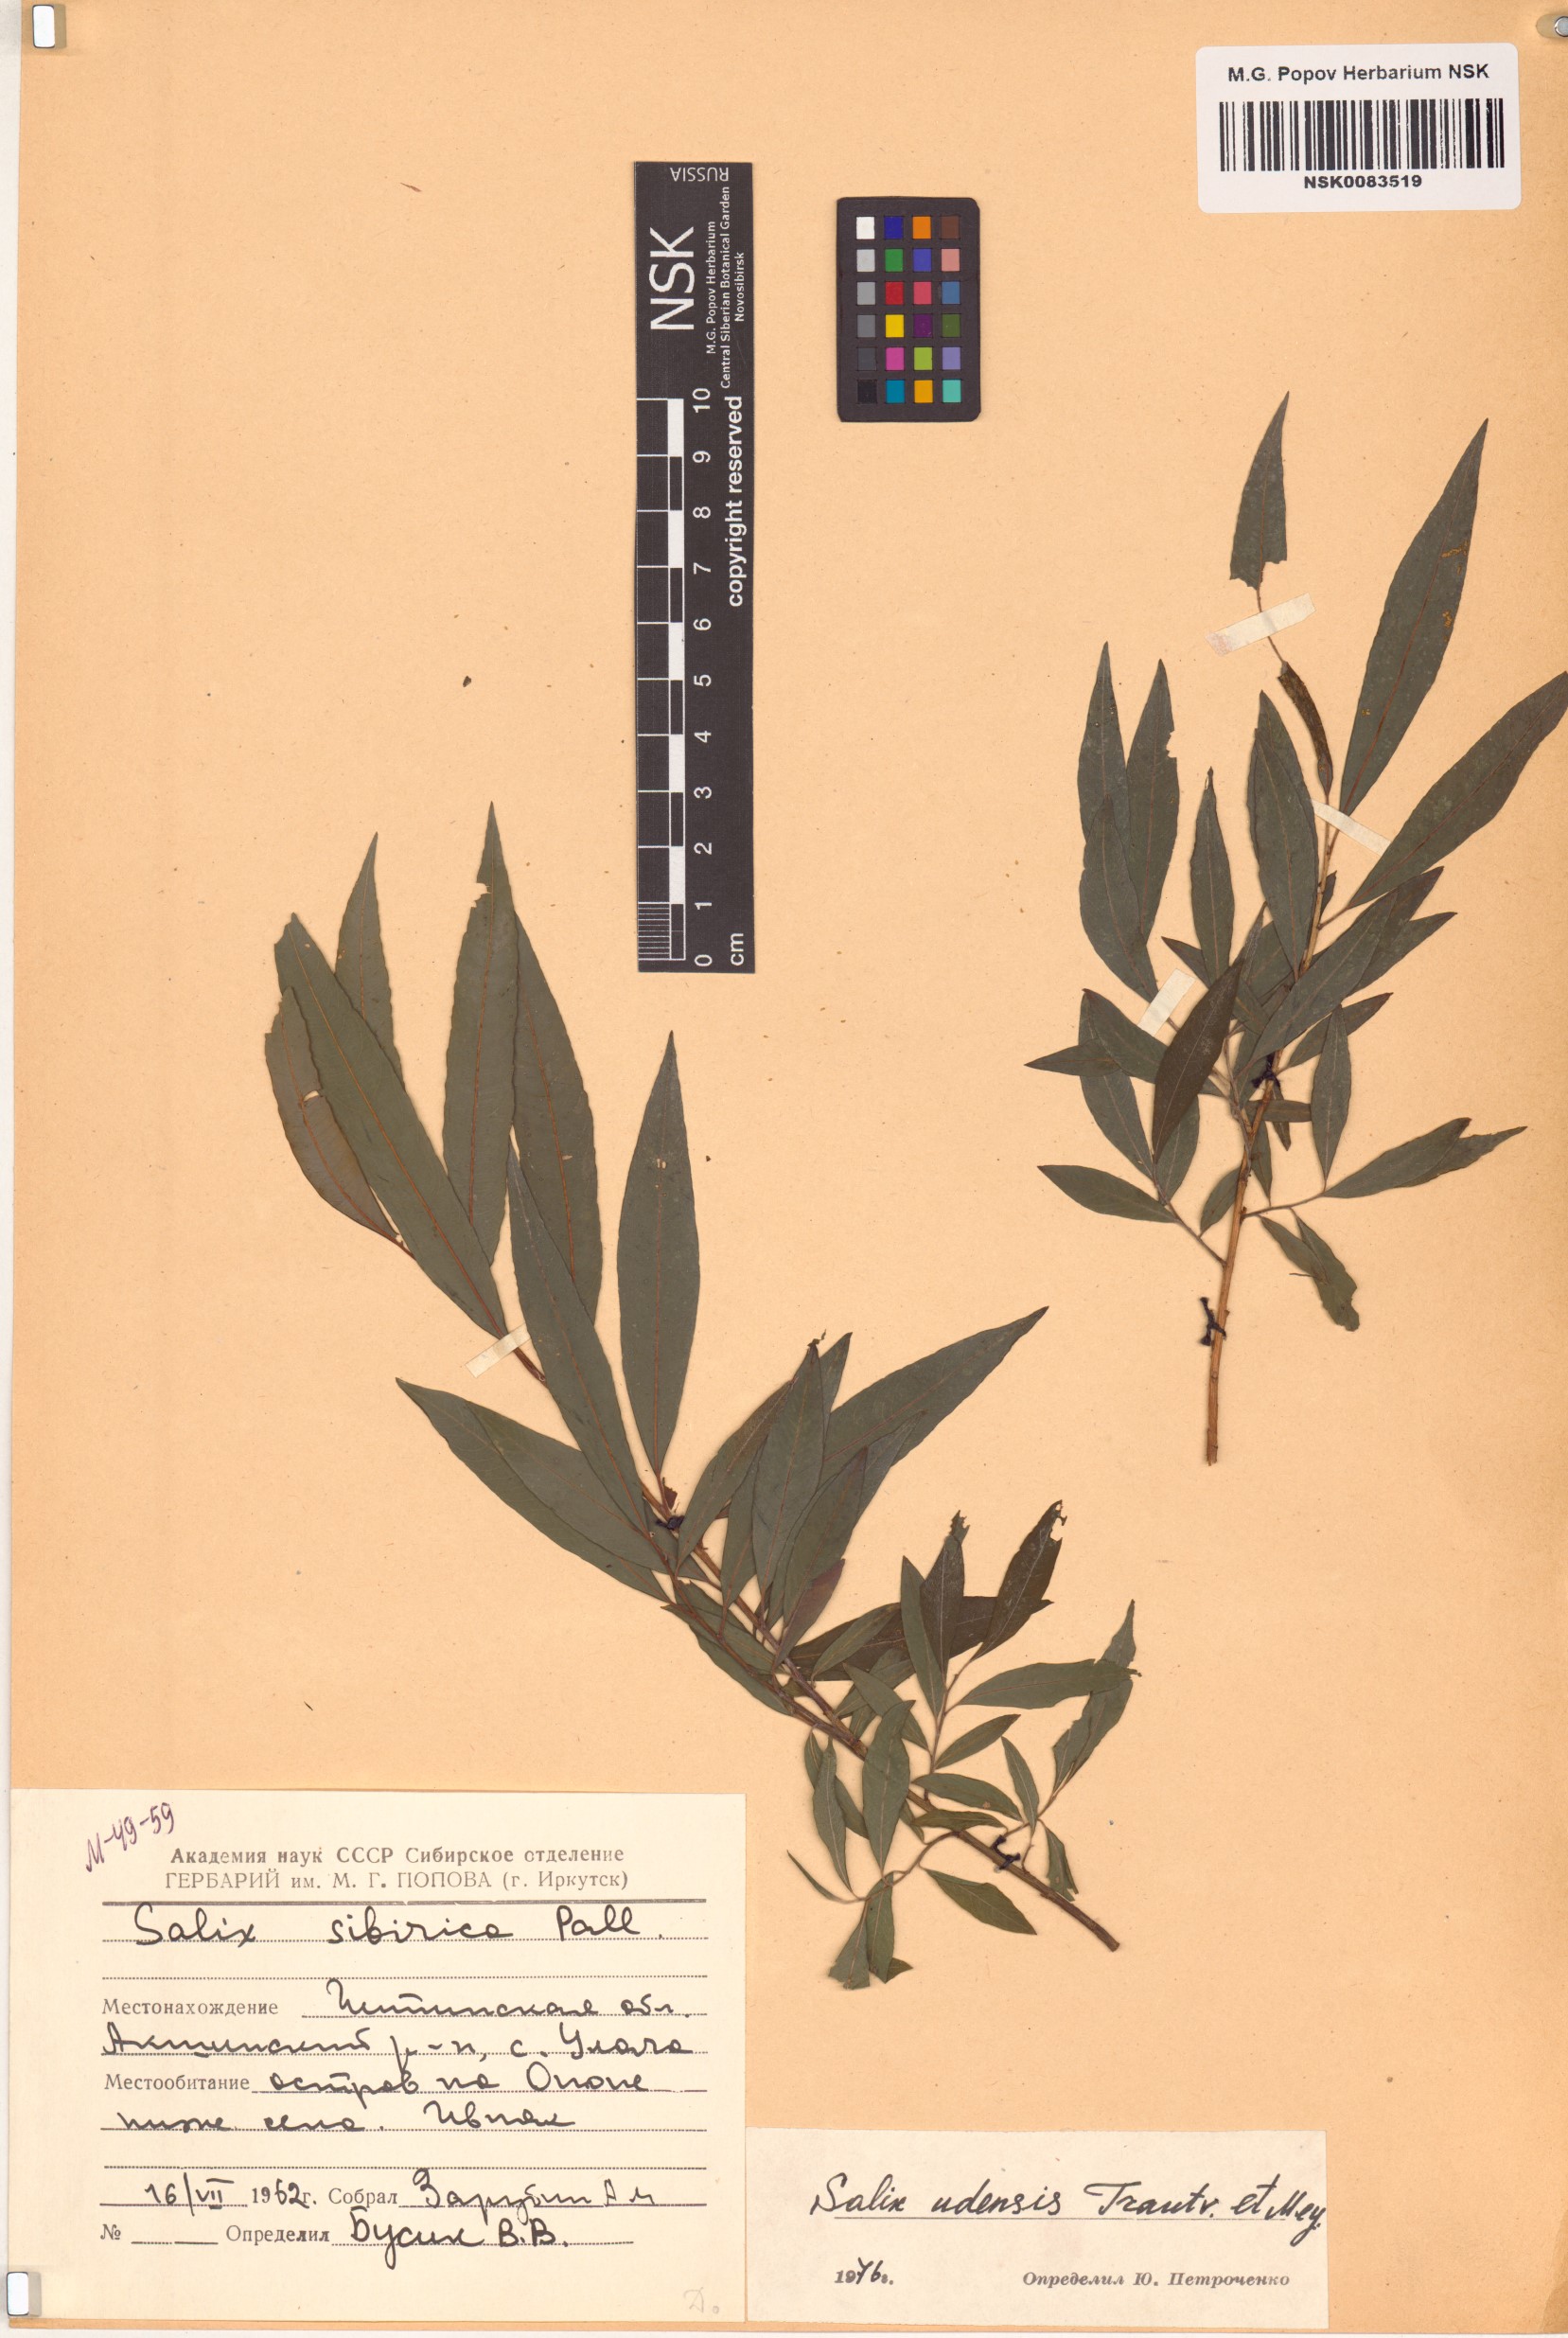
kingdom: Plantae
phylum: Tracheophyta
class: Magnoliopsida
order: Malpighiales
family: Salicaceae
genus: Salix
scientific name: Salix udensis
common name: Sachalin willow
